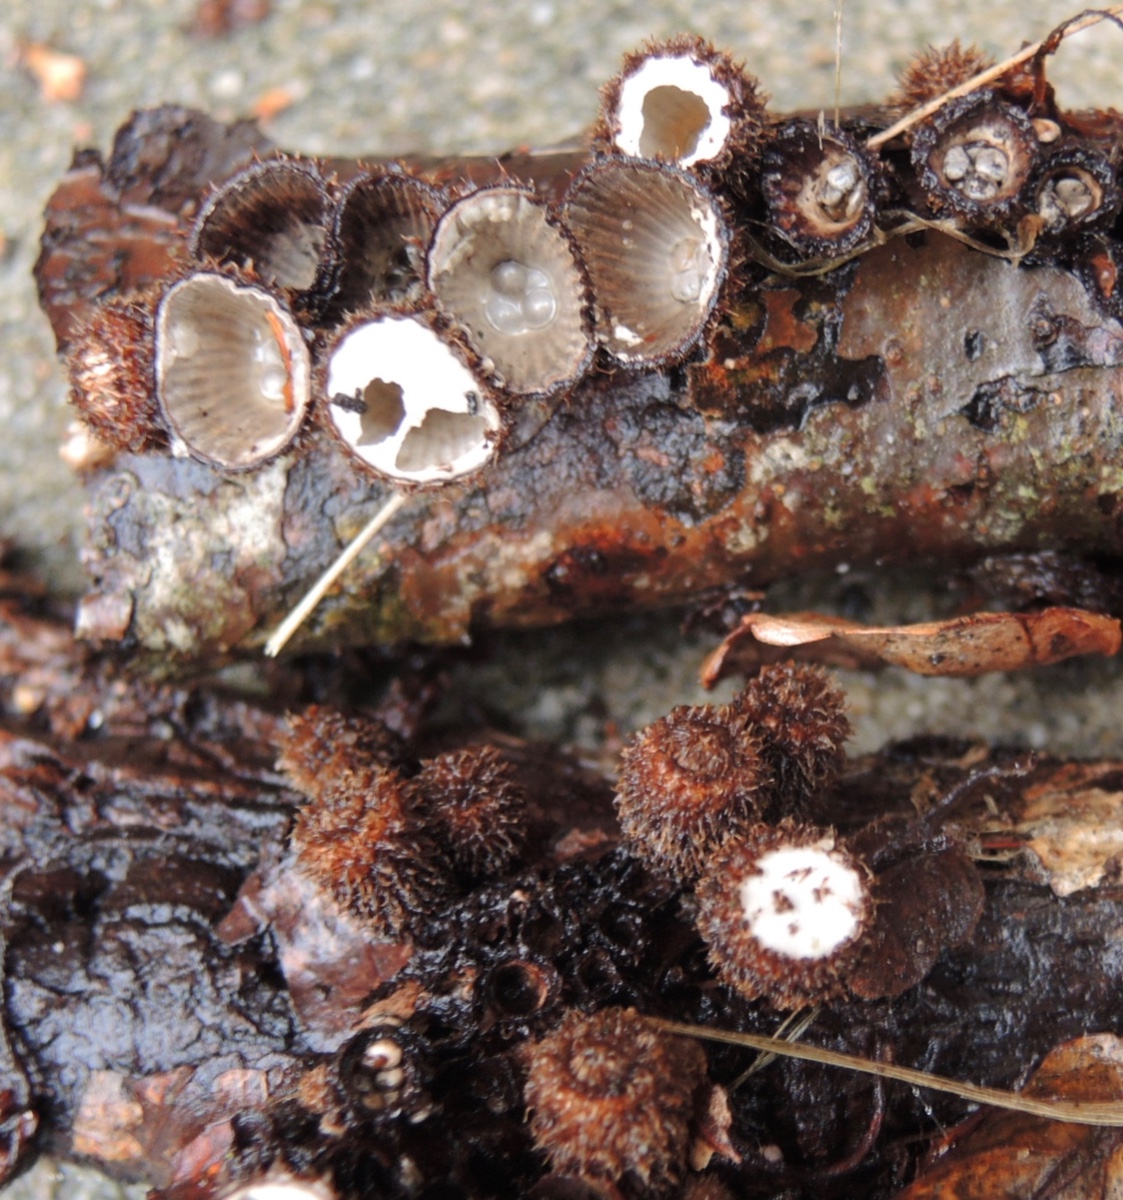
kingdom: Fungi
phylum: Basidiomycota
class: Agaricomycetes
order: Agaricales
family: Agaricaceae
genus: Cyathus
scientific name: Cyathus striatus
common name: stribet redesvamp
